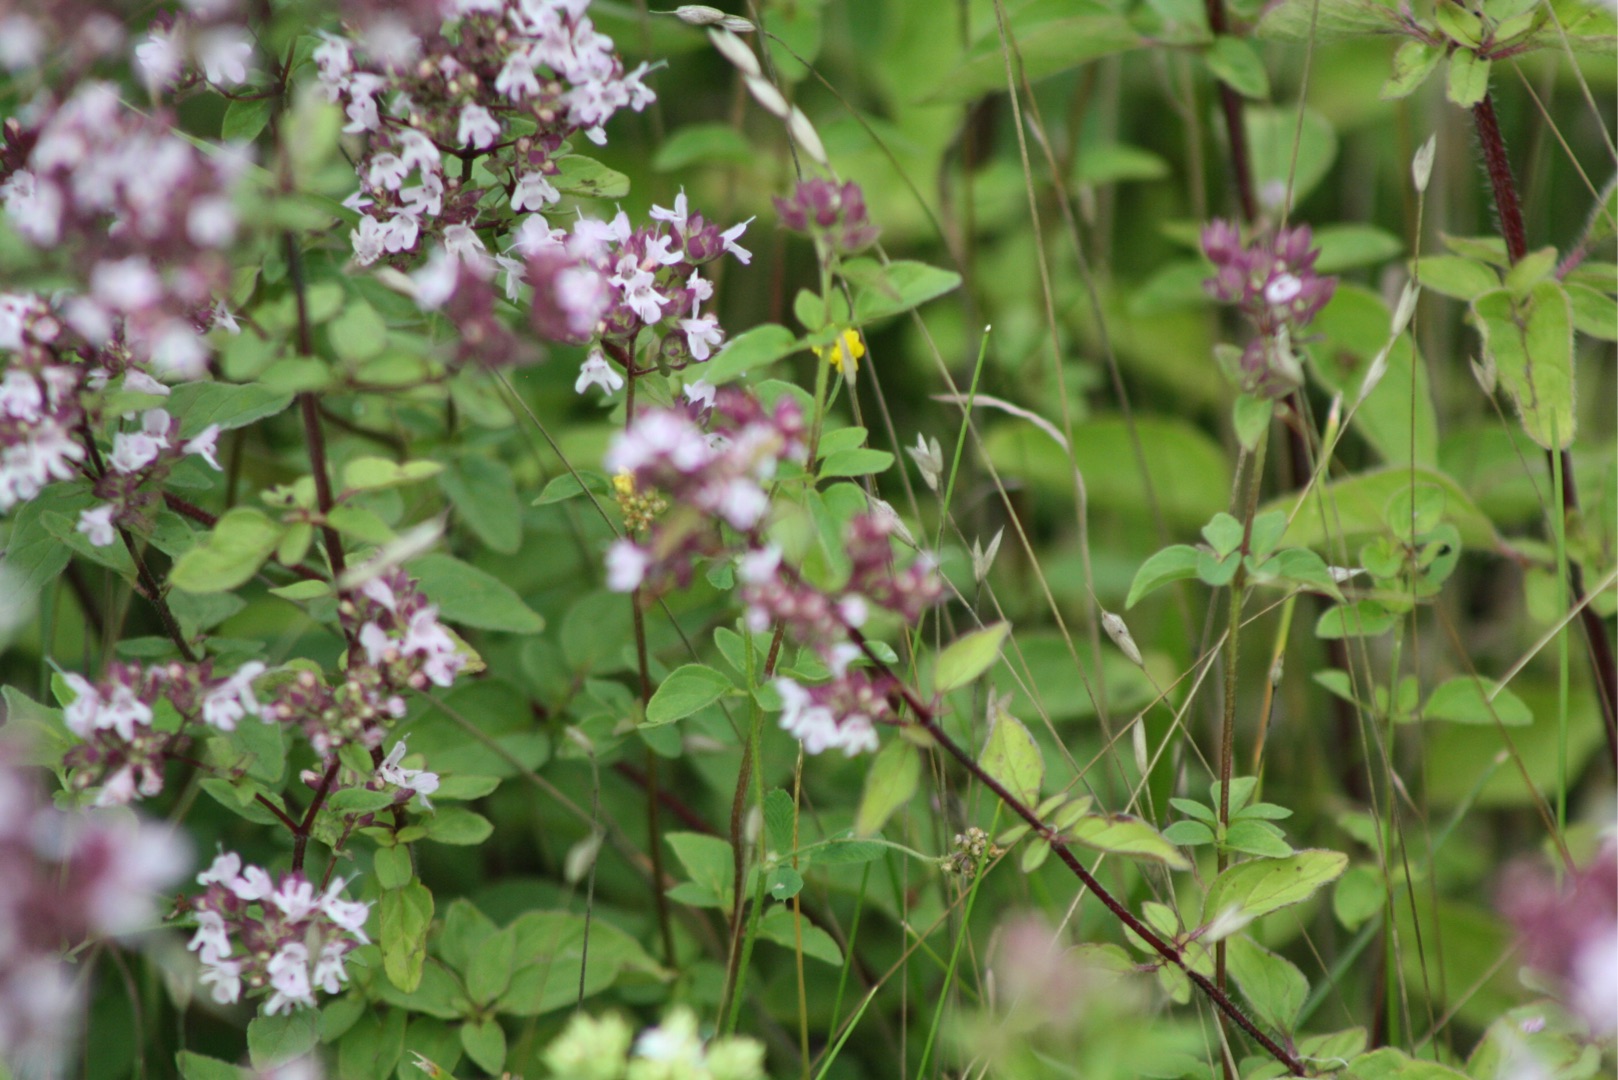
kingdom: Plantae
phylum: Tracheophyta
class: Magnoliopsida
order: Lamiales
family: Lamiaceae
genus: Origanum
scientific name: Origanum vulgare
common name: Merian
